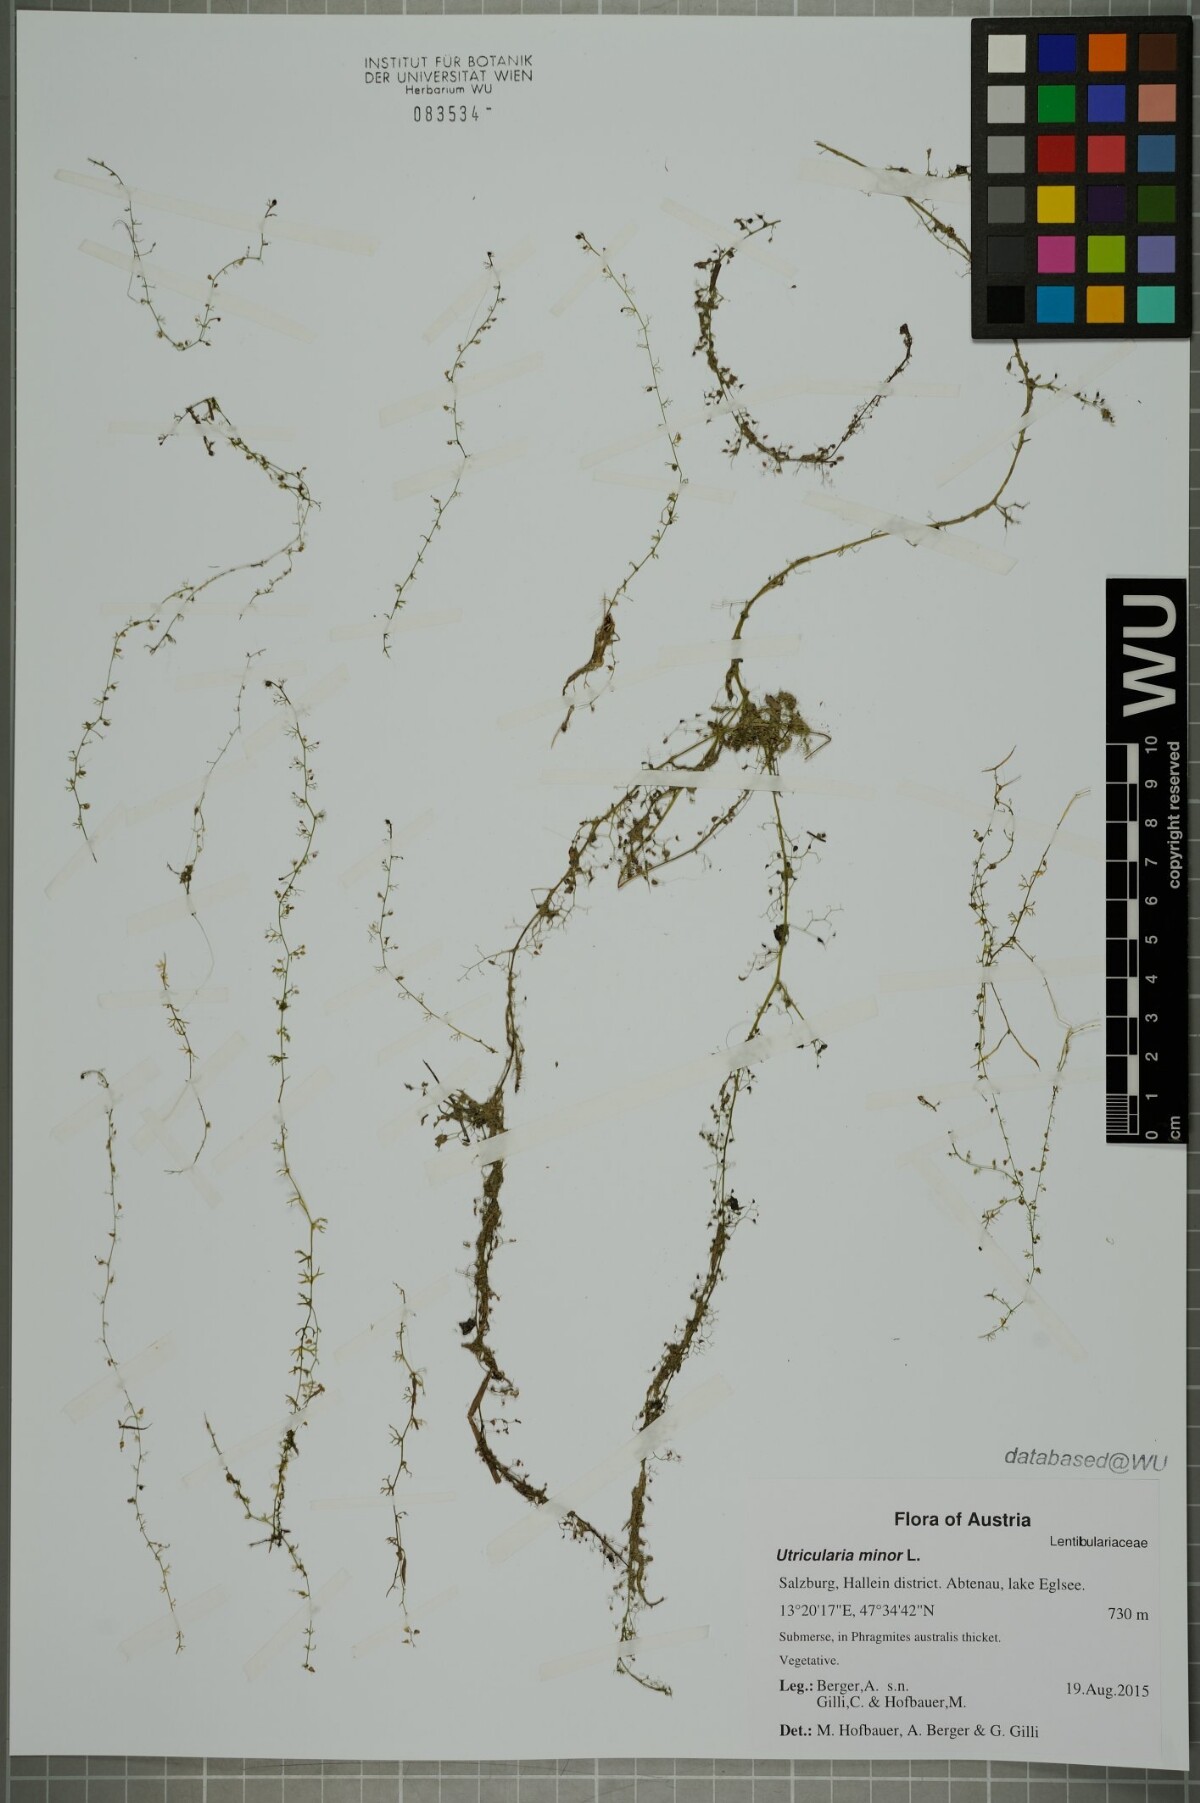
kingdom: Plantae
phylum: Tracheophyta
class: Magnoliopsida
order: Lamiales
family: Lentibulariaceae
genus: Utricularia
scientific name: Utricularia minor
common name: Lesser bladderwort
